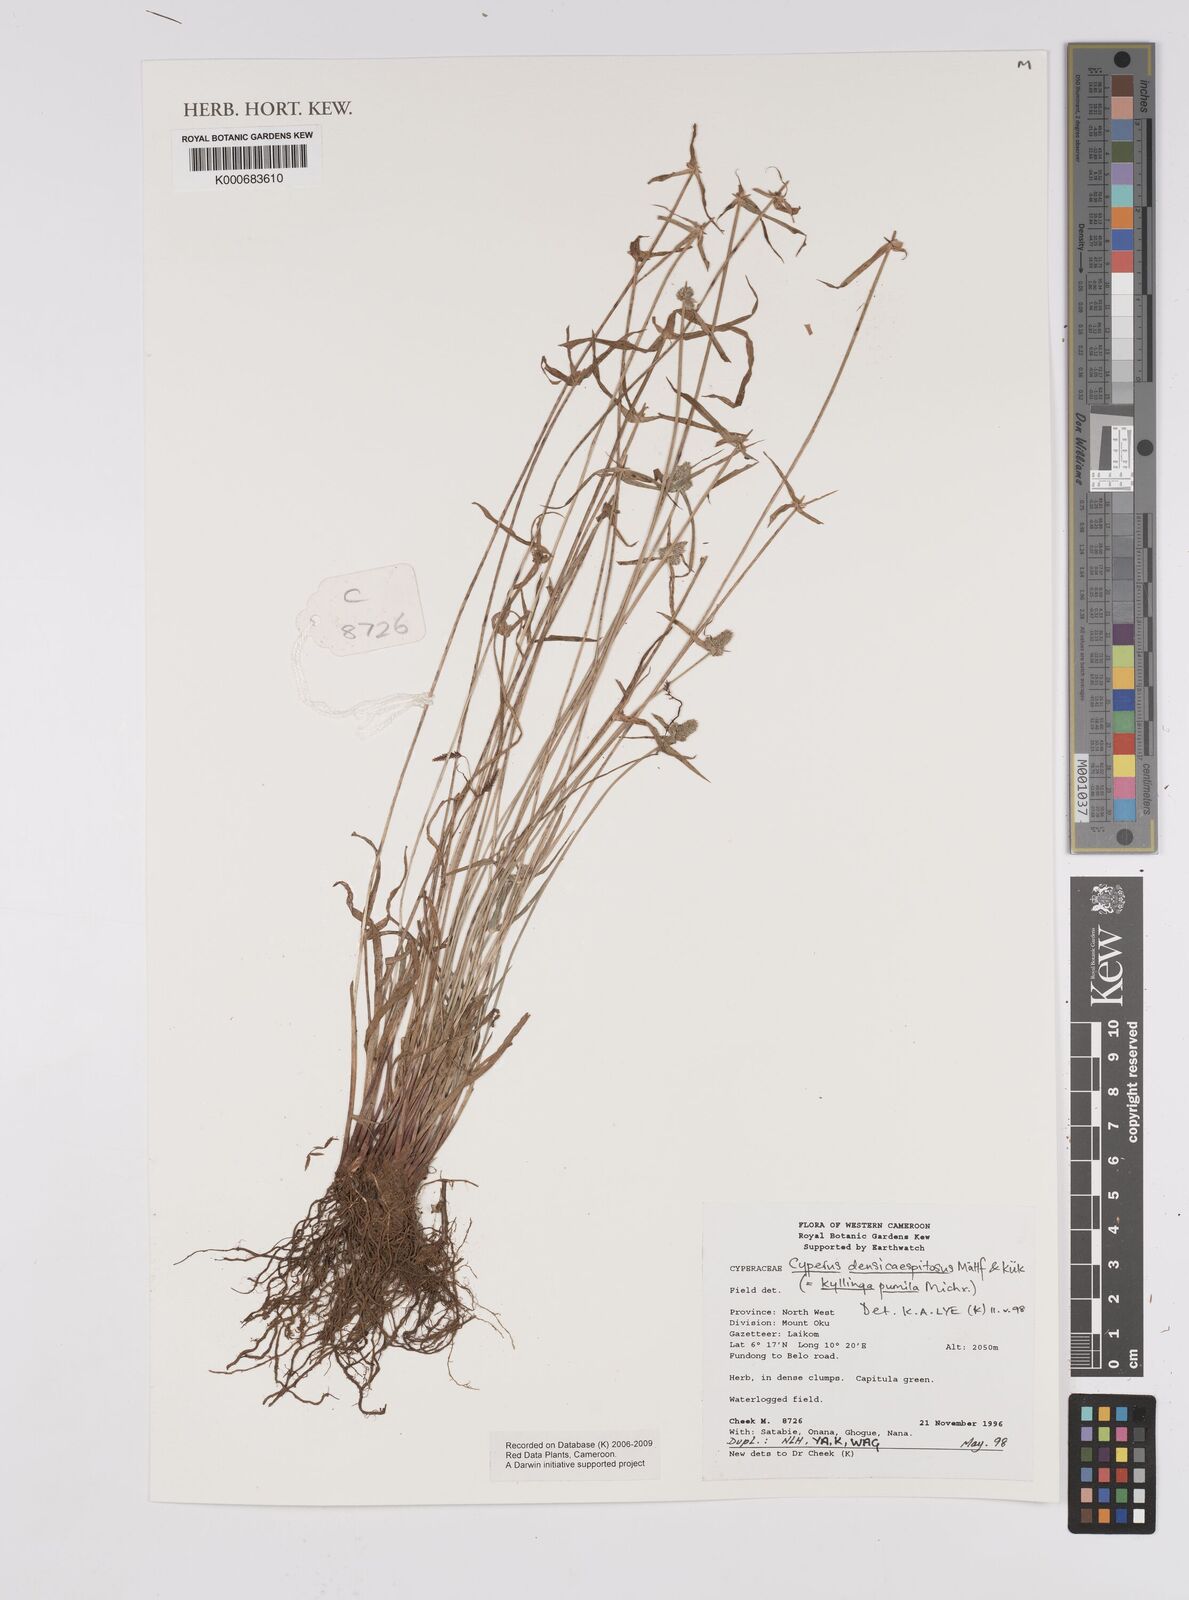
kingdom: Plantae
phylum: Tracheophyta
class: Liliopsida
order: Poales
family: Cyperaceae
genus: Cyperus
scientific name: Cyperus
